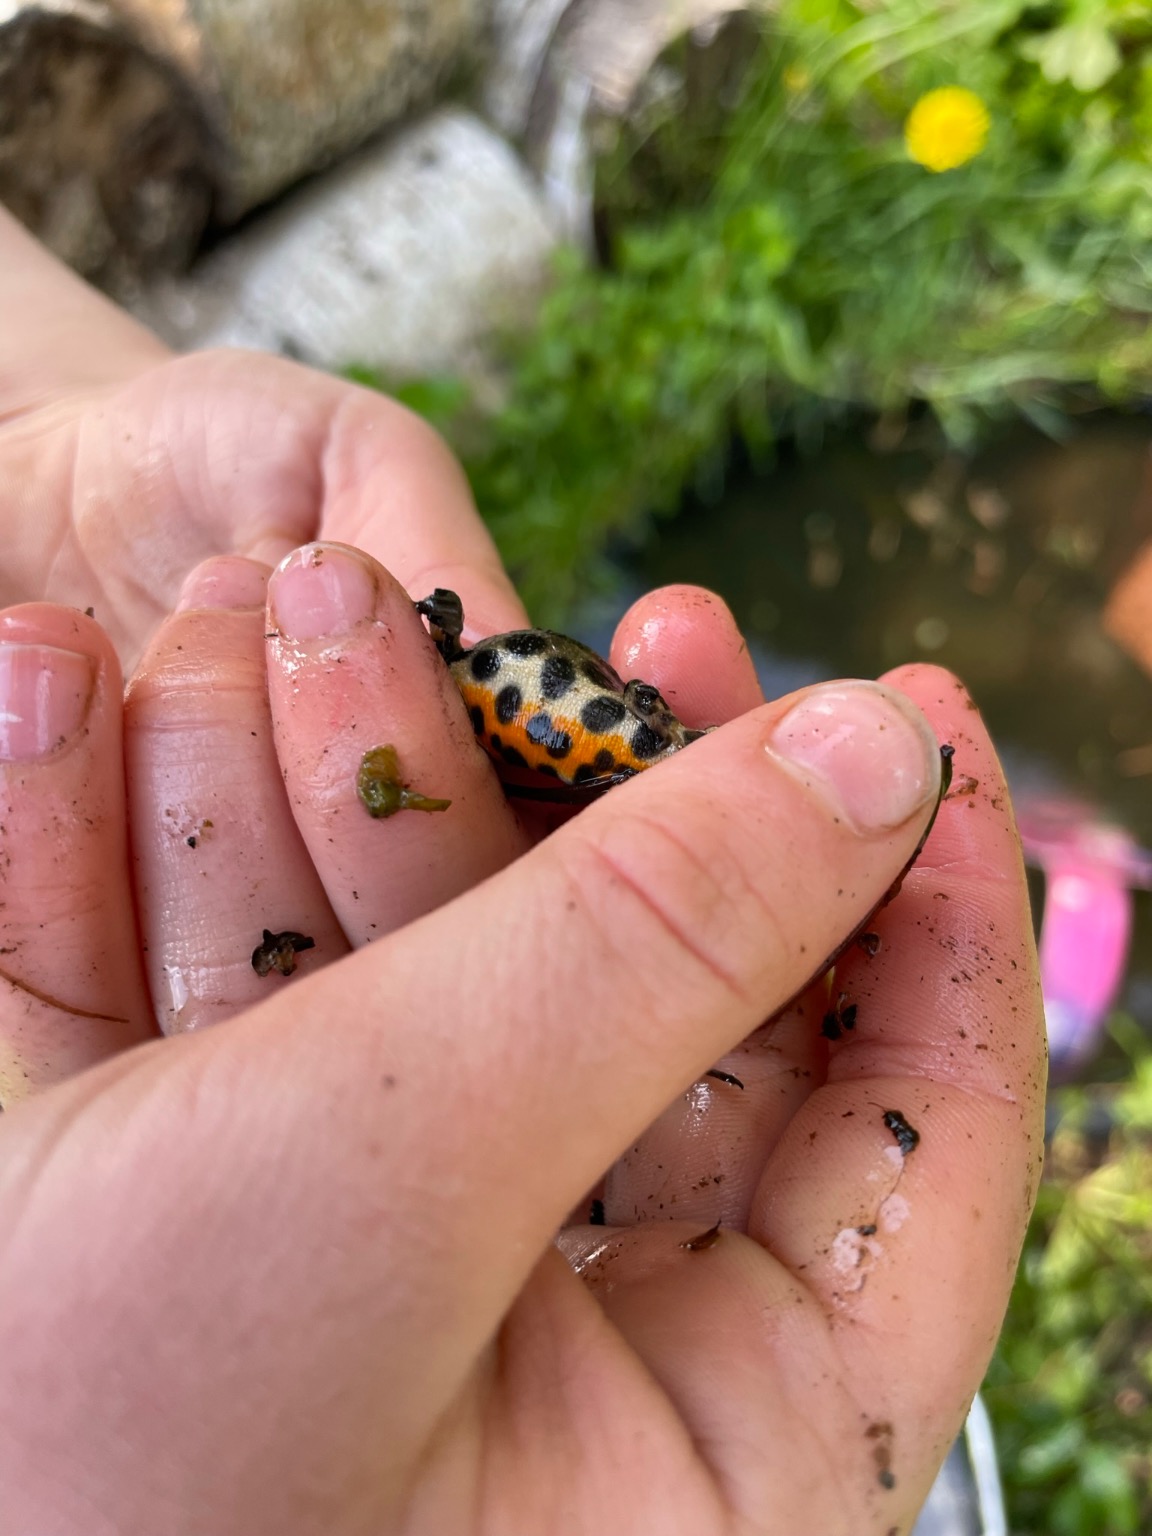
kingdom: Animalia
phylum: Chordata
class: Amphibia
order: Caudata
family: Salamandridae
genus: Lissotriton
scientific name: Lissotriton vulgaris
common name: Lille vandsalamander
